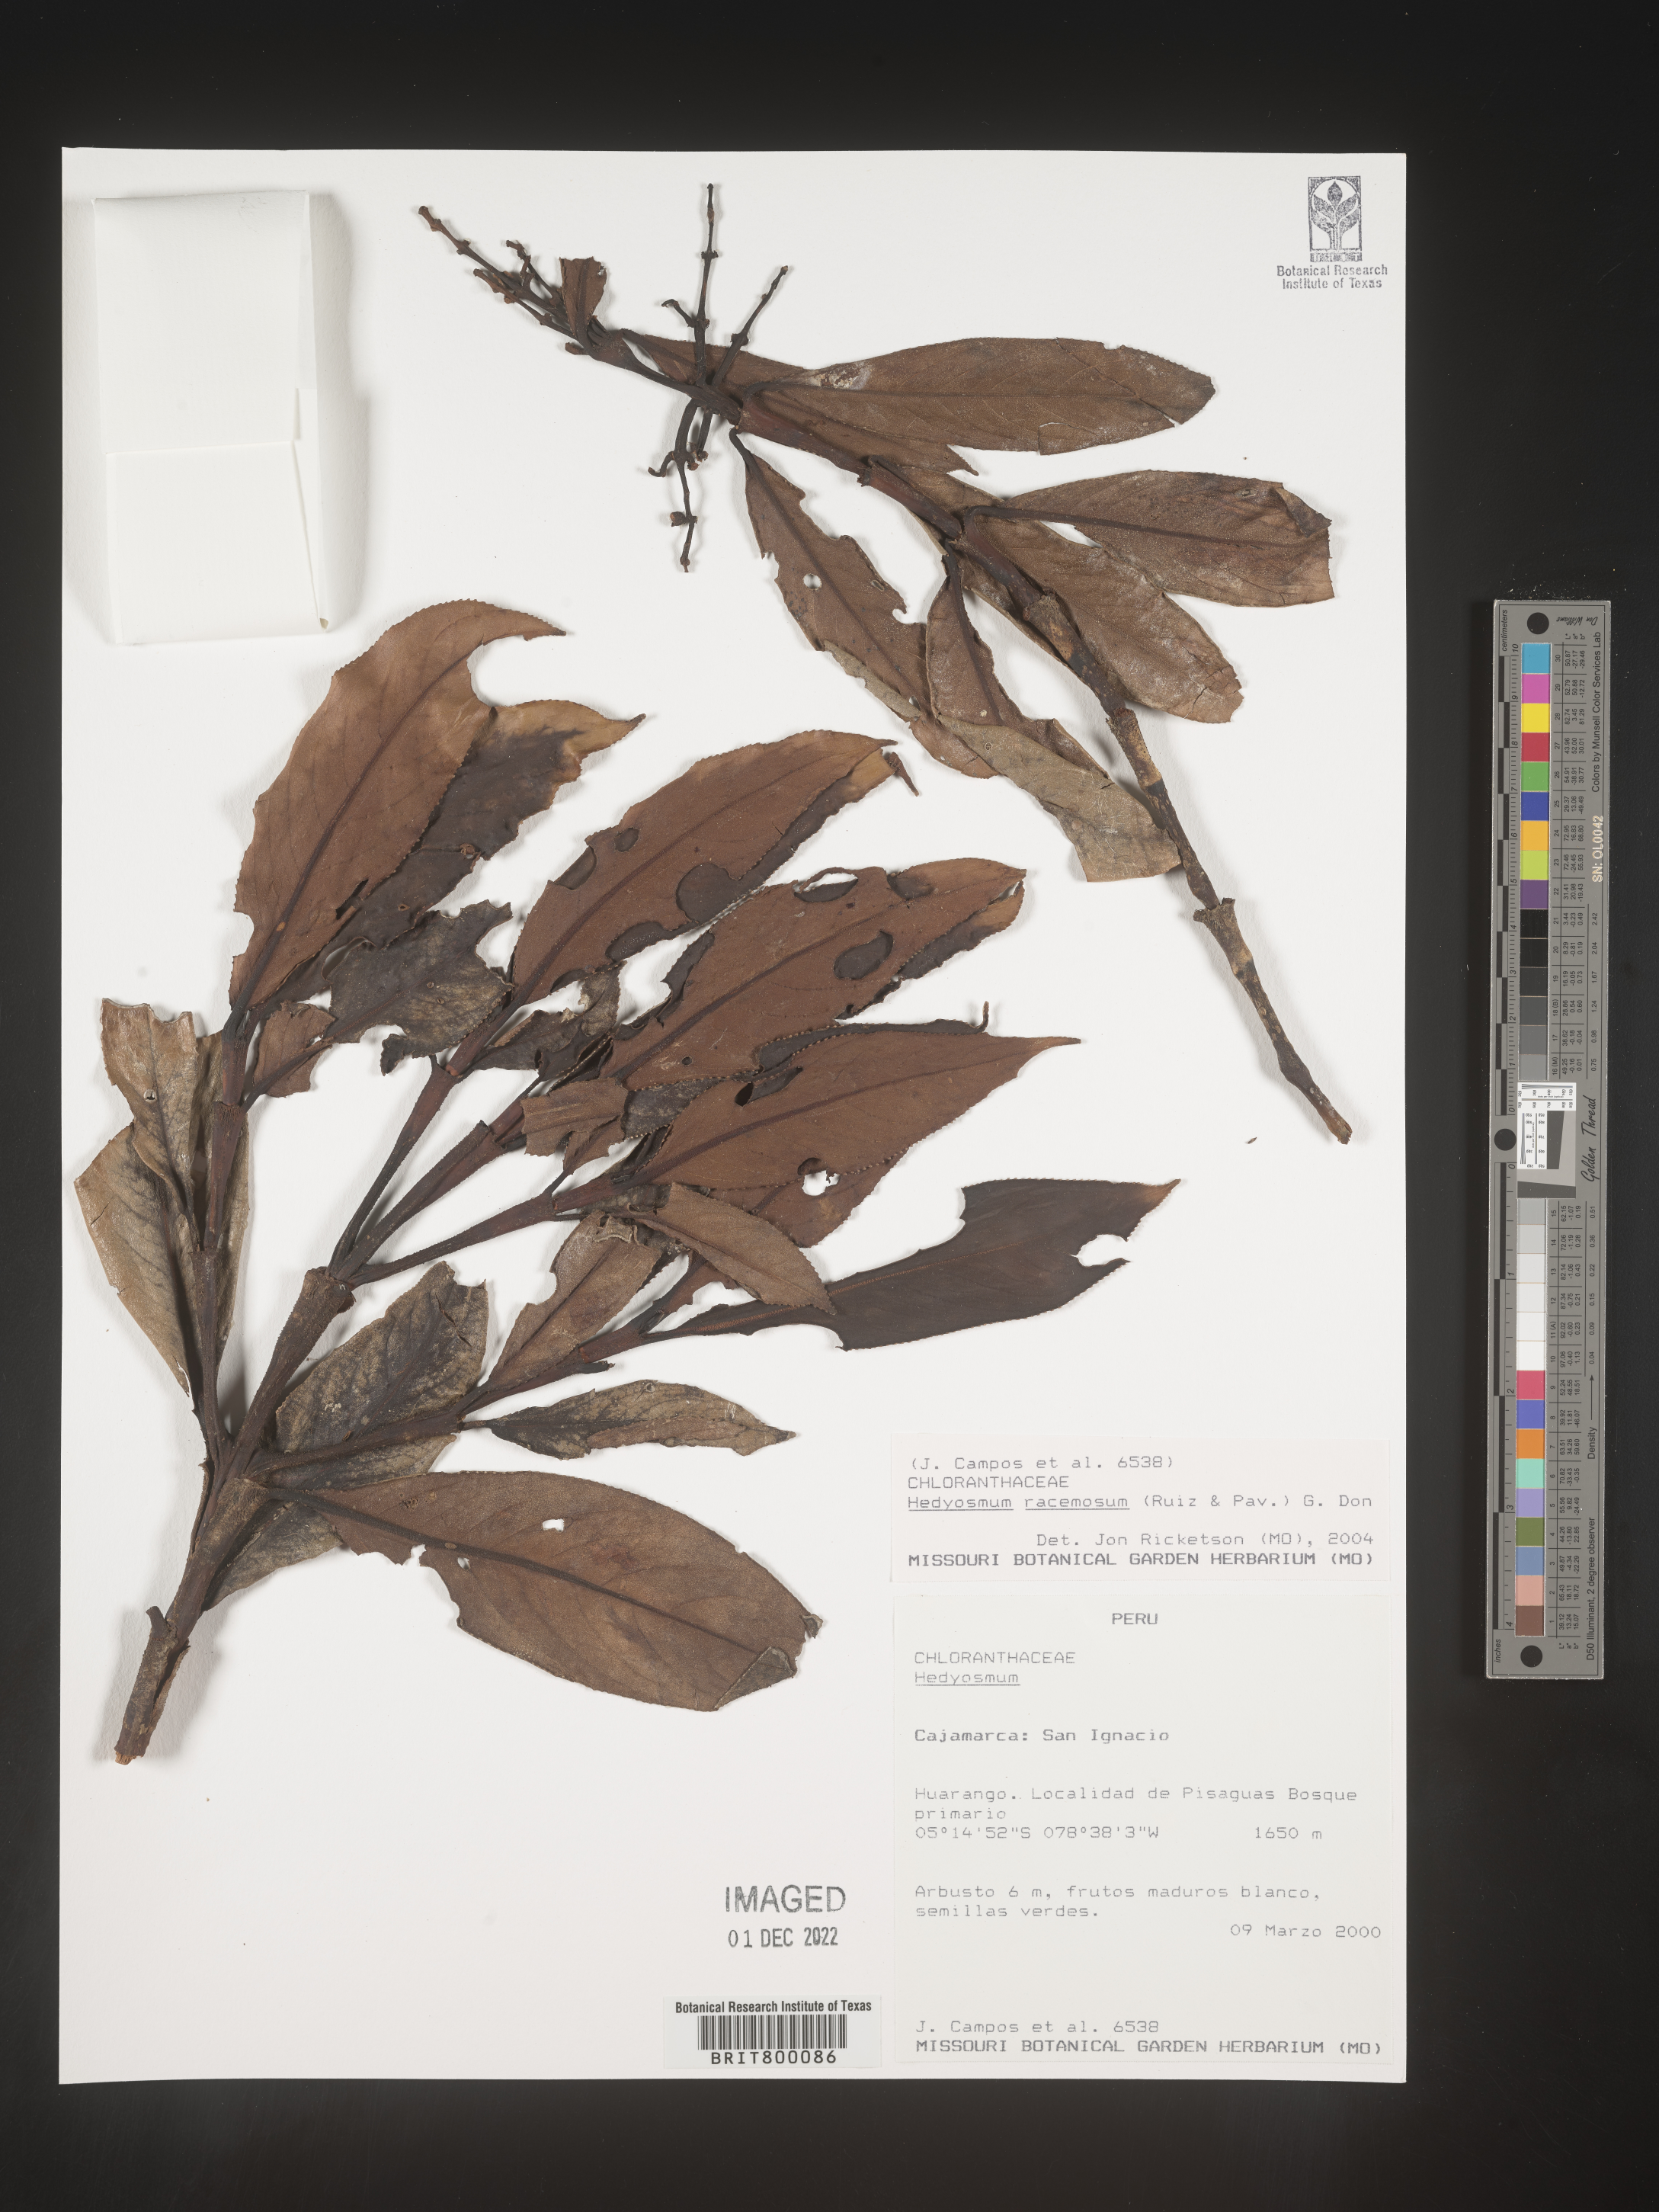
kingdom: Plantae
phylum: Tracheophyta
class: Magnoliopsida
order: Chloranthales
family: Chloranthaceae
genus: Hedyosmum
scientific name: Hedyosmum
